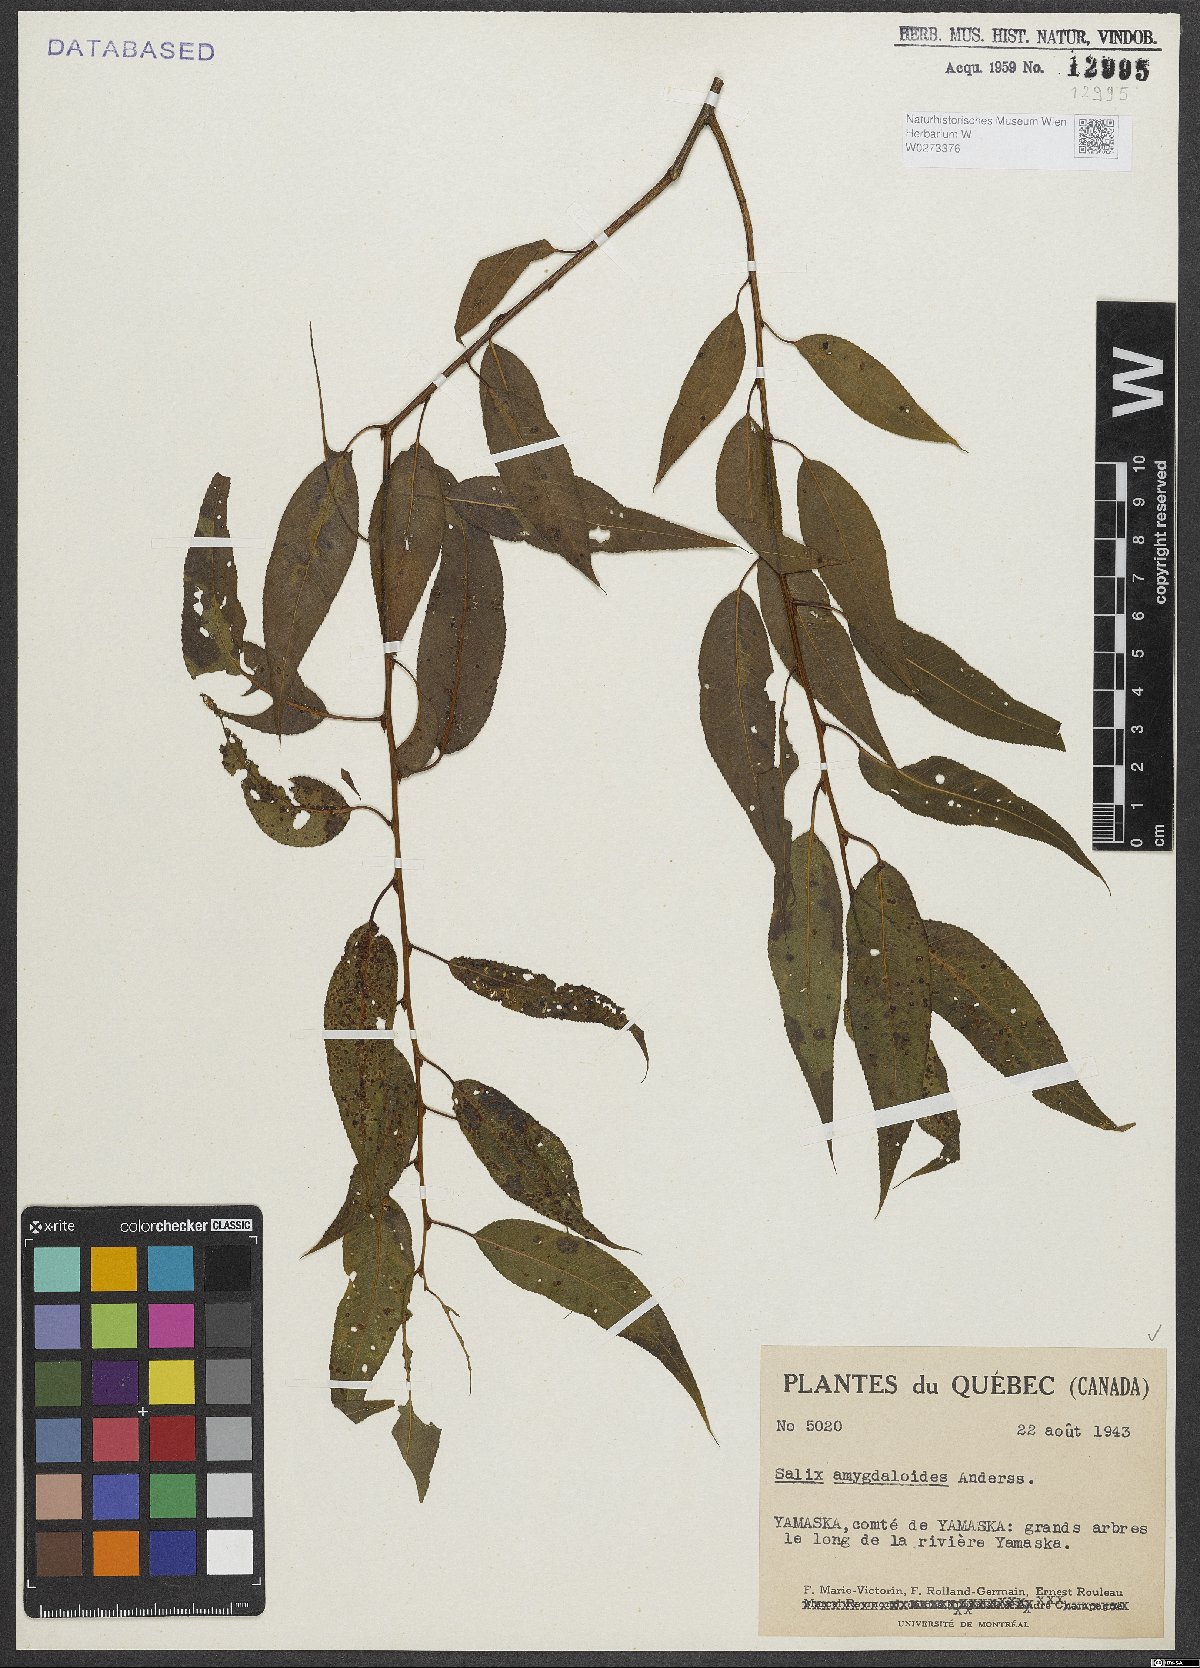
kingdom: Plantae
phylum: Tracheophyta
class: Magnoliopsida
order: Malpighiales
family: Salicaceae
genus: Salix
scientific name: Salix amygdaloides
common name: Peach leaf willow
